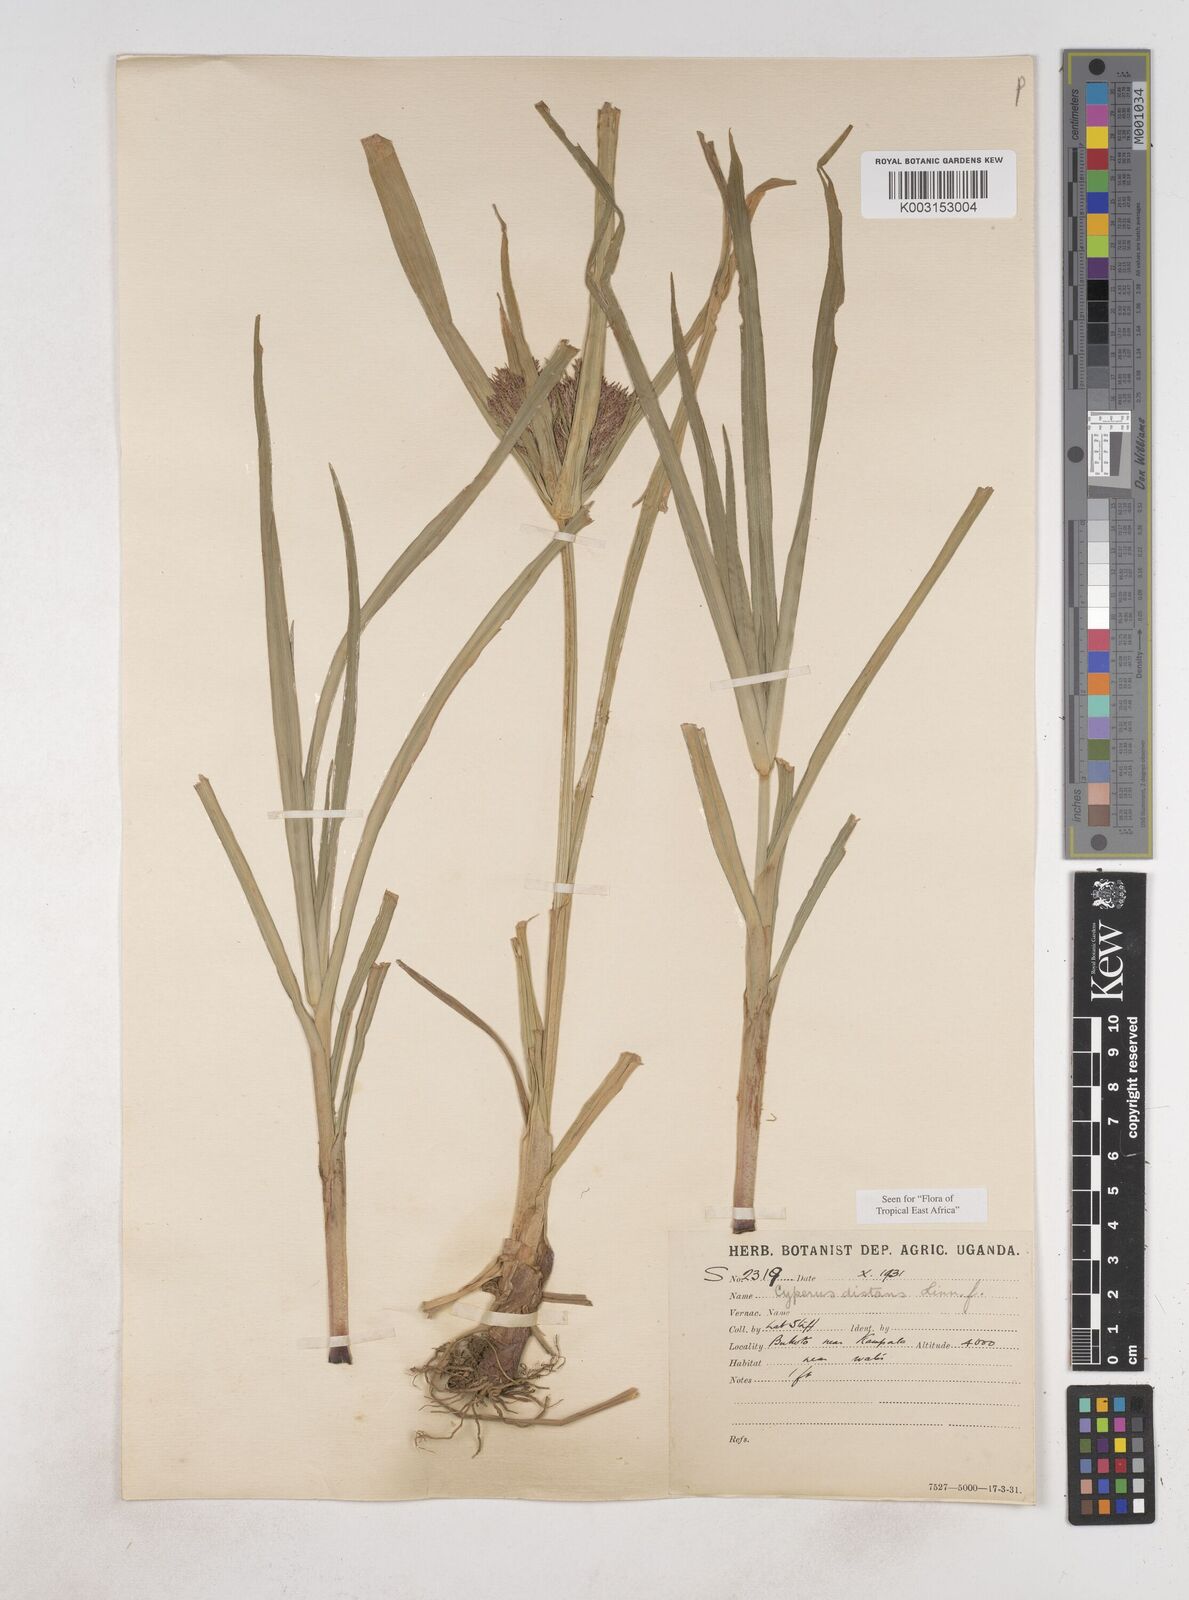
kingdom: Plantae
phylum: Tracheophyta
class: Liliopsida
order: Poales
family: Cyperaceae
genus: Cyperus
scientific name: Cyperus distans
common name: Slender cyperus
